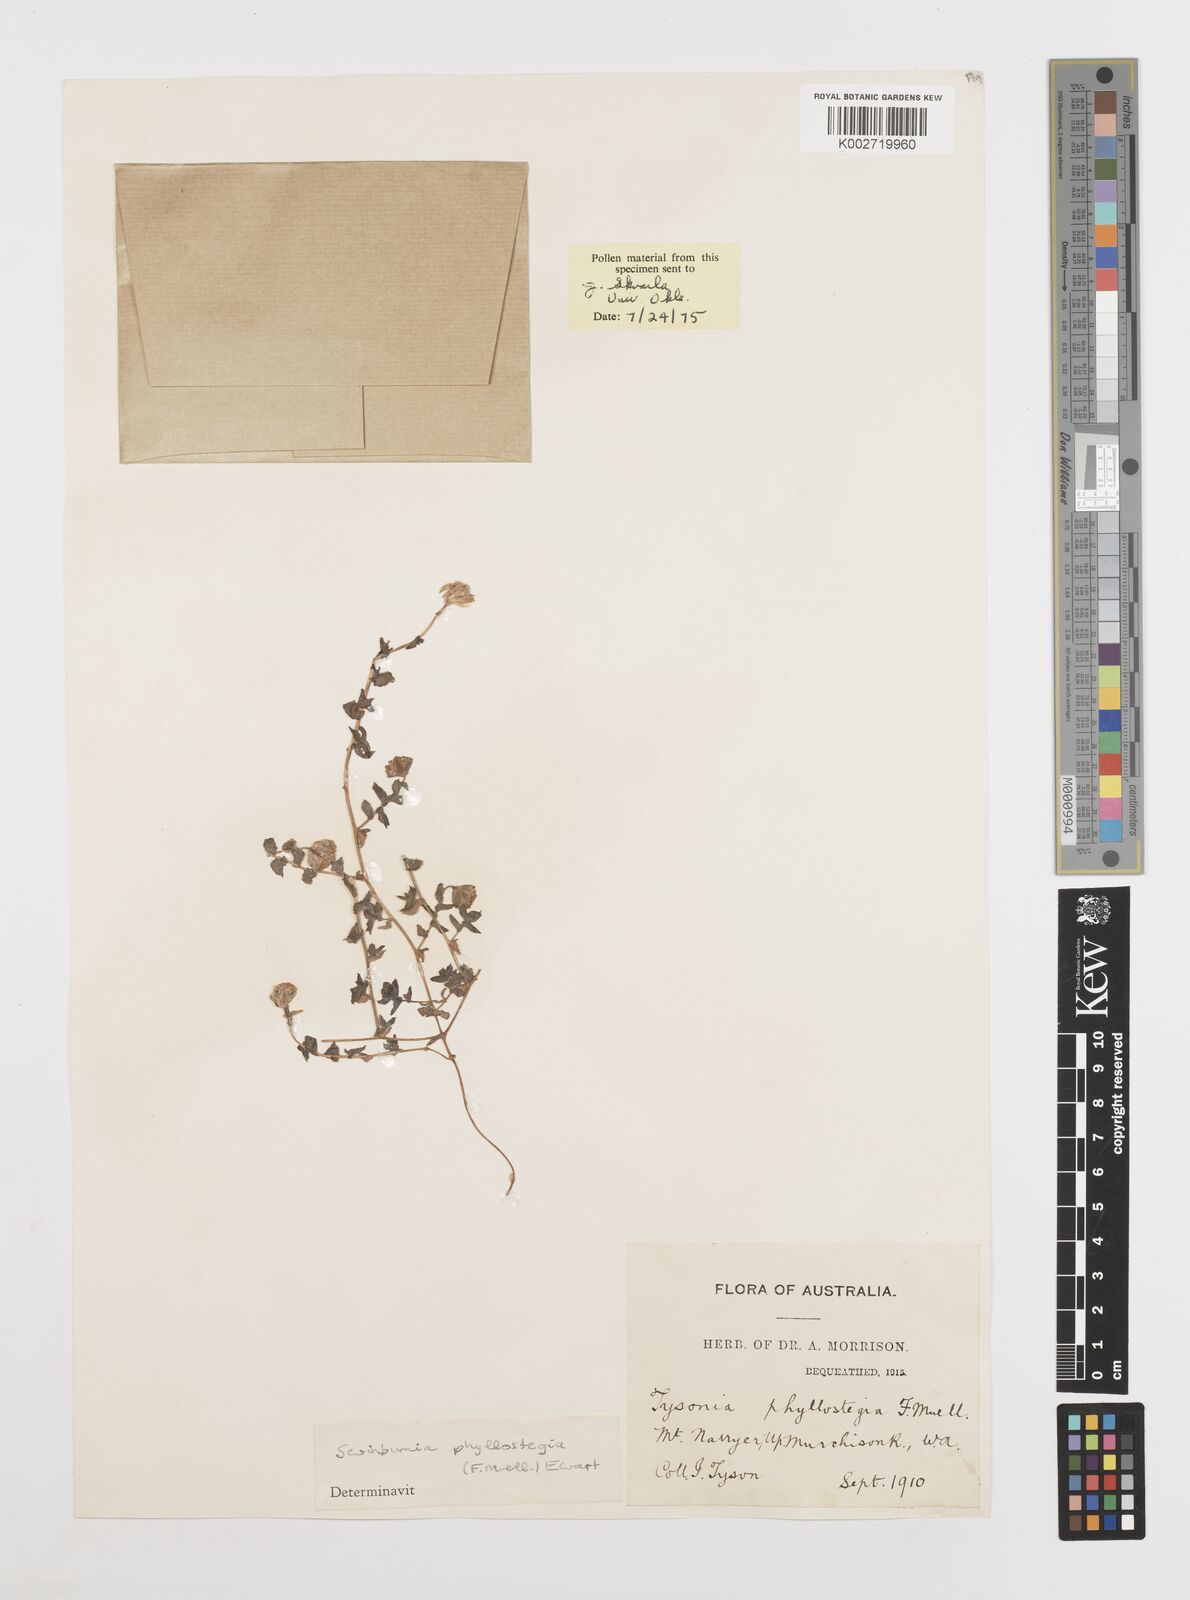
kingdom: Plantae
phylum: Tracheophyta
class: Magnoliopsida
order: Asterales
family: Asteraceae
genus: Neotysonia
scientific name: Neotysonia phyllostegia
